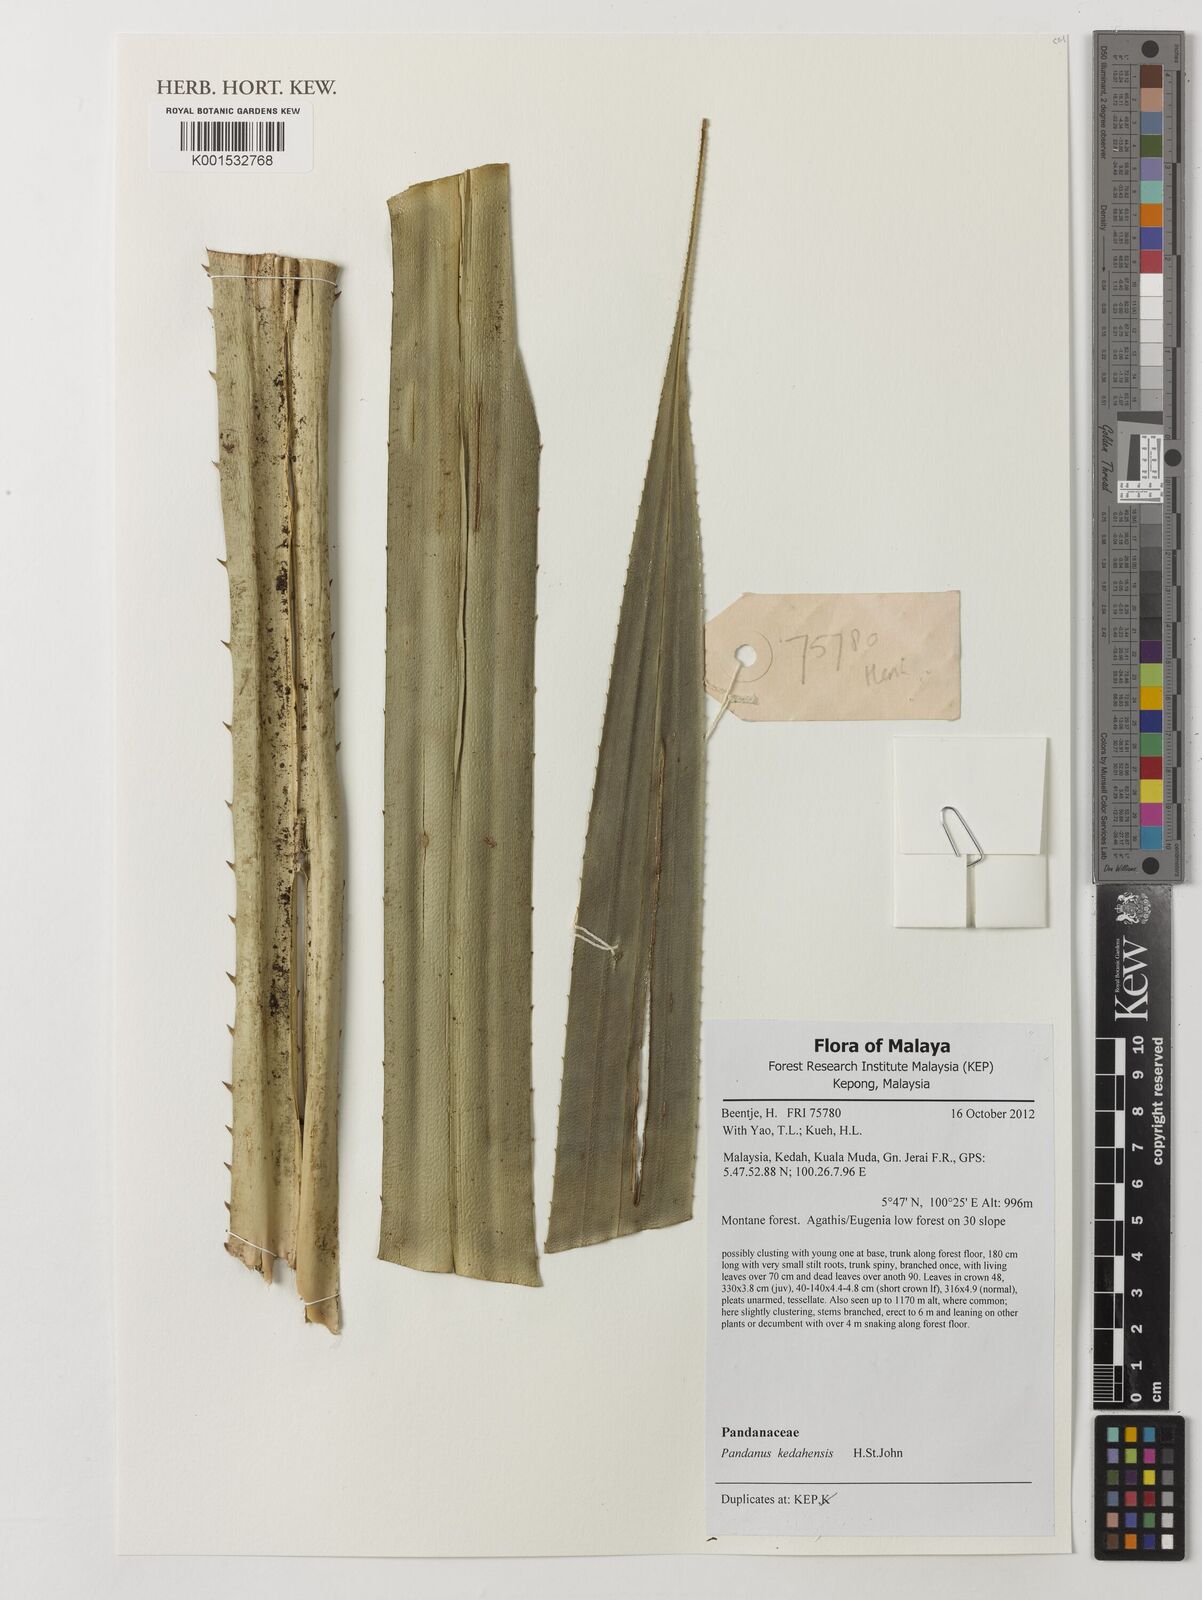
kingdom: Plantae
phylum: Tracheophyta
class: Liliopsida
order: Pandanales
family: Pandanaceae
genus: Pandanus
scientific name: Pandanus kedahensis
